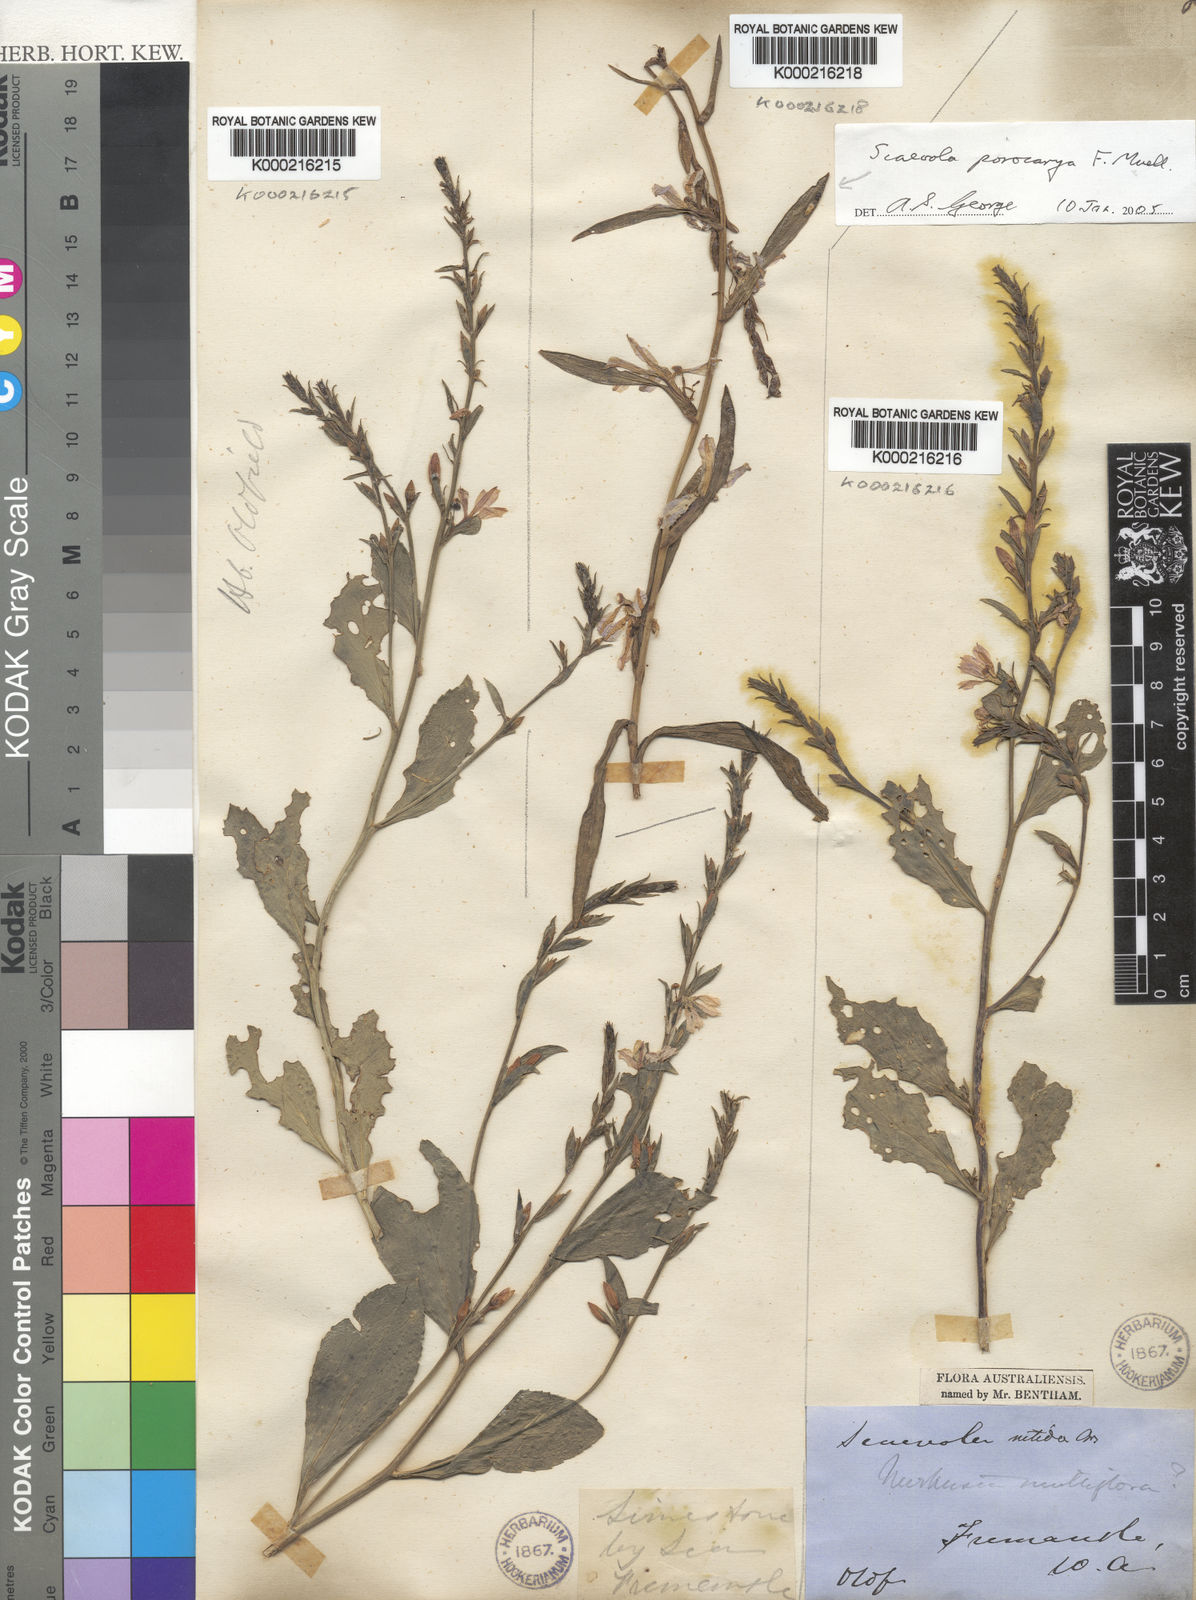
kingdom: Plantae
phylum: Tracheophyta
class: Magnoliopsida
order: Asterales
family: Goodeniaceae
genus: Scaevola
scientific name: Scaevola porocarya
